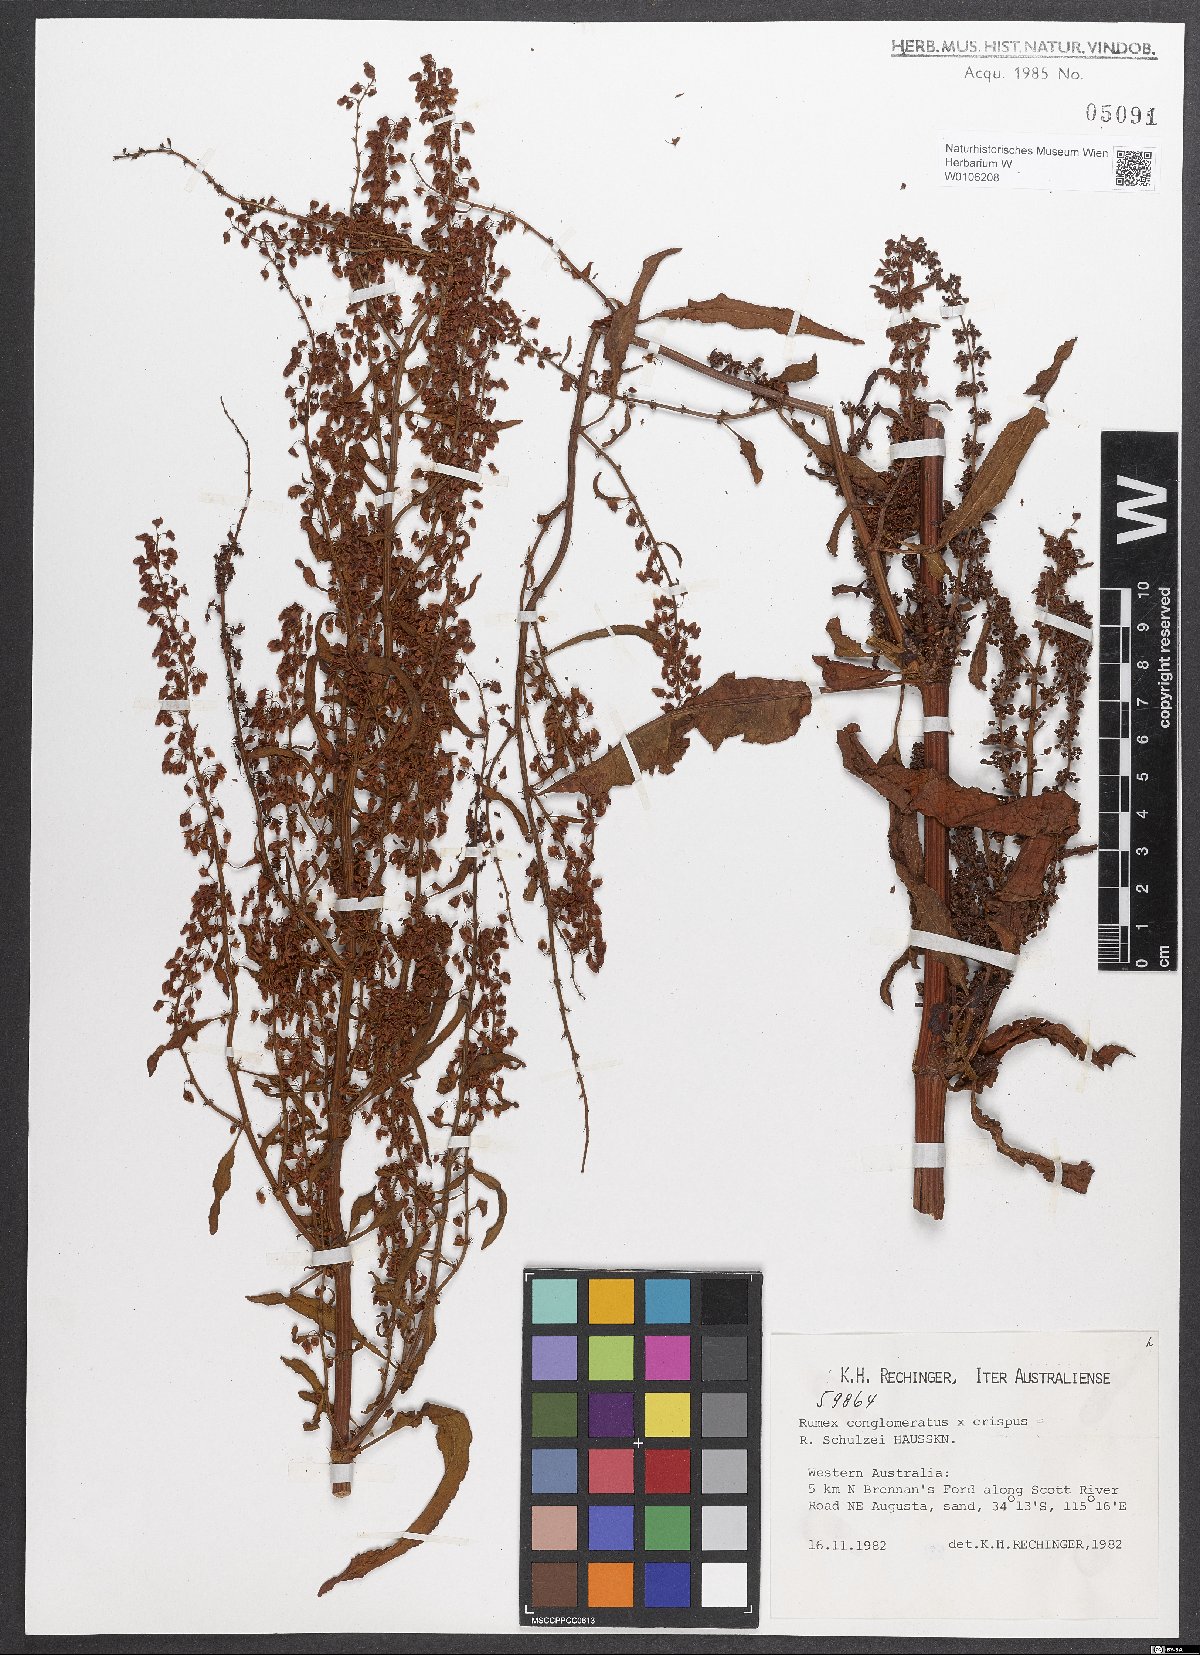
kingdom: Plantae
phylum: Tracheophyta
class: Magnoliopsida
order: Caryophyllales
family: Polygonaceae
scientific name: Polygonaceae
